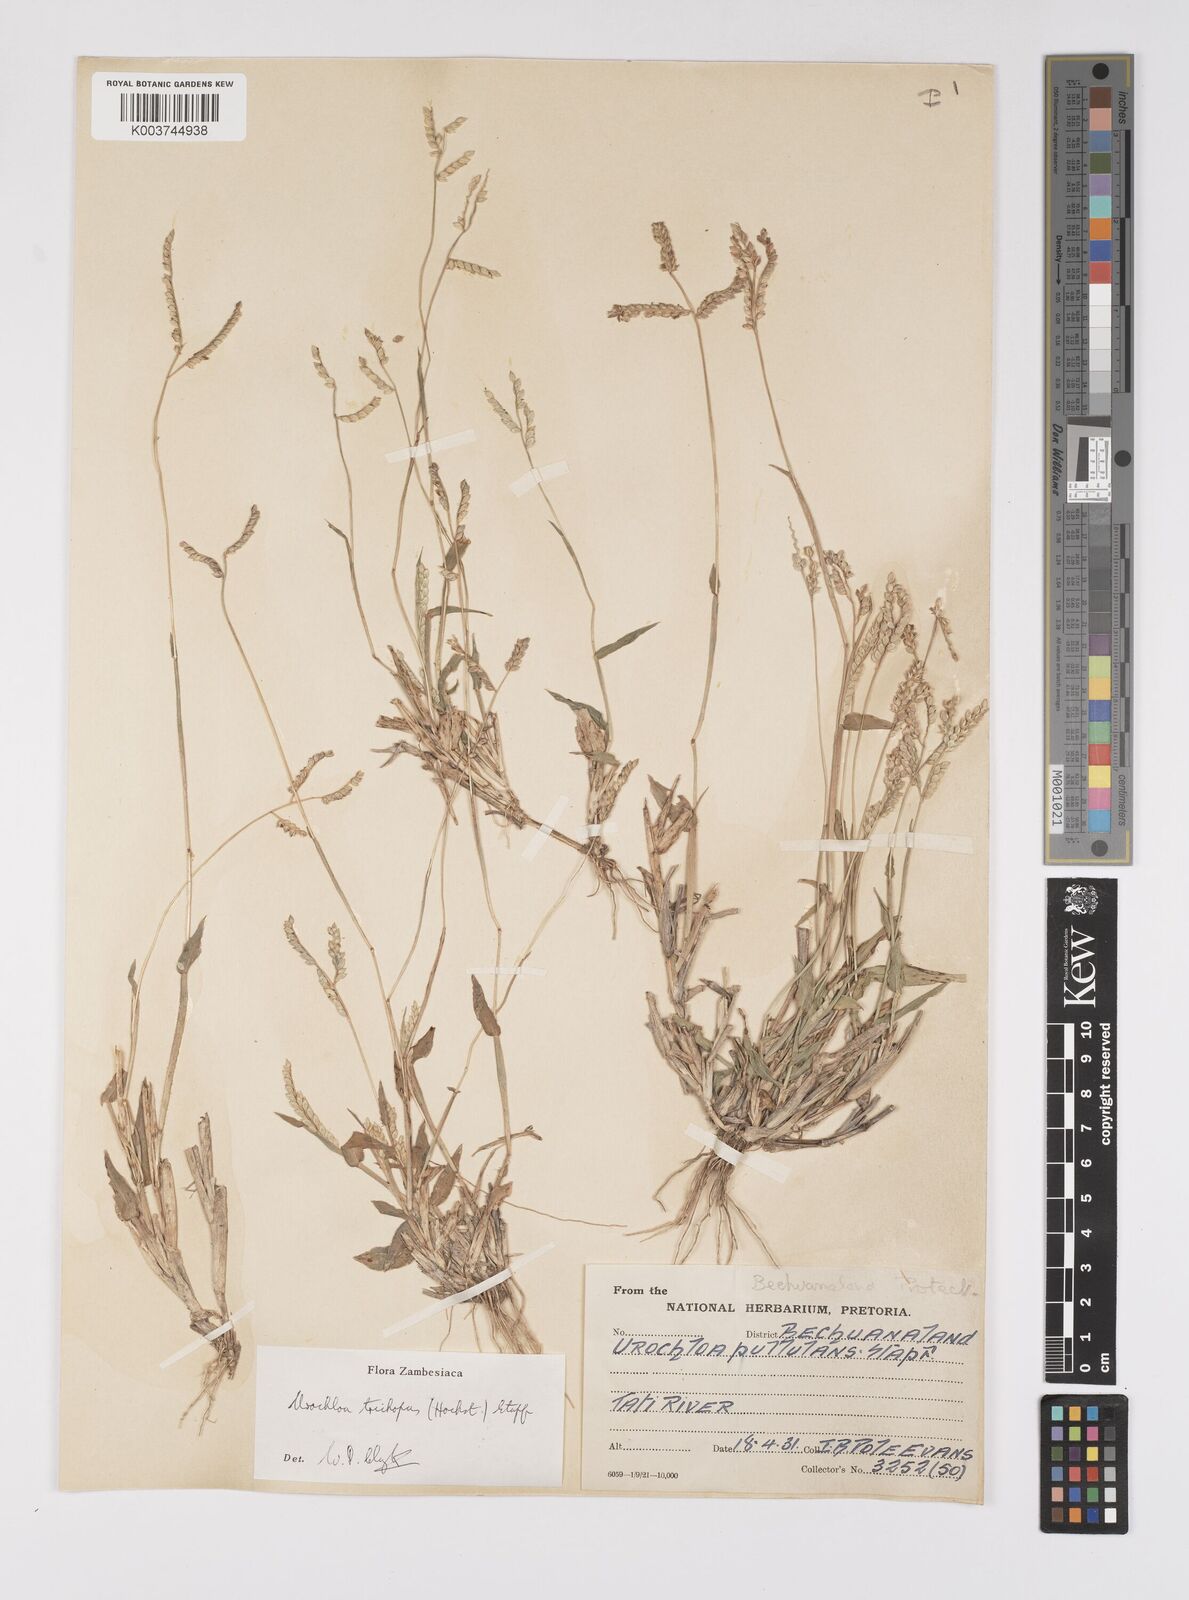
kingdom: Plantae
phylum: Tracheophyta
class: Liliopsida
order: Poales
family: Poaceae
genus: Urochloa
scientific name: Urochloa trichopus
